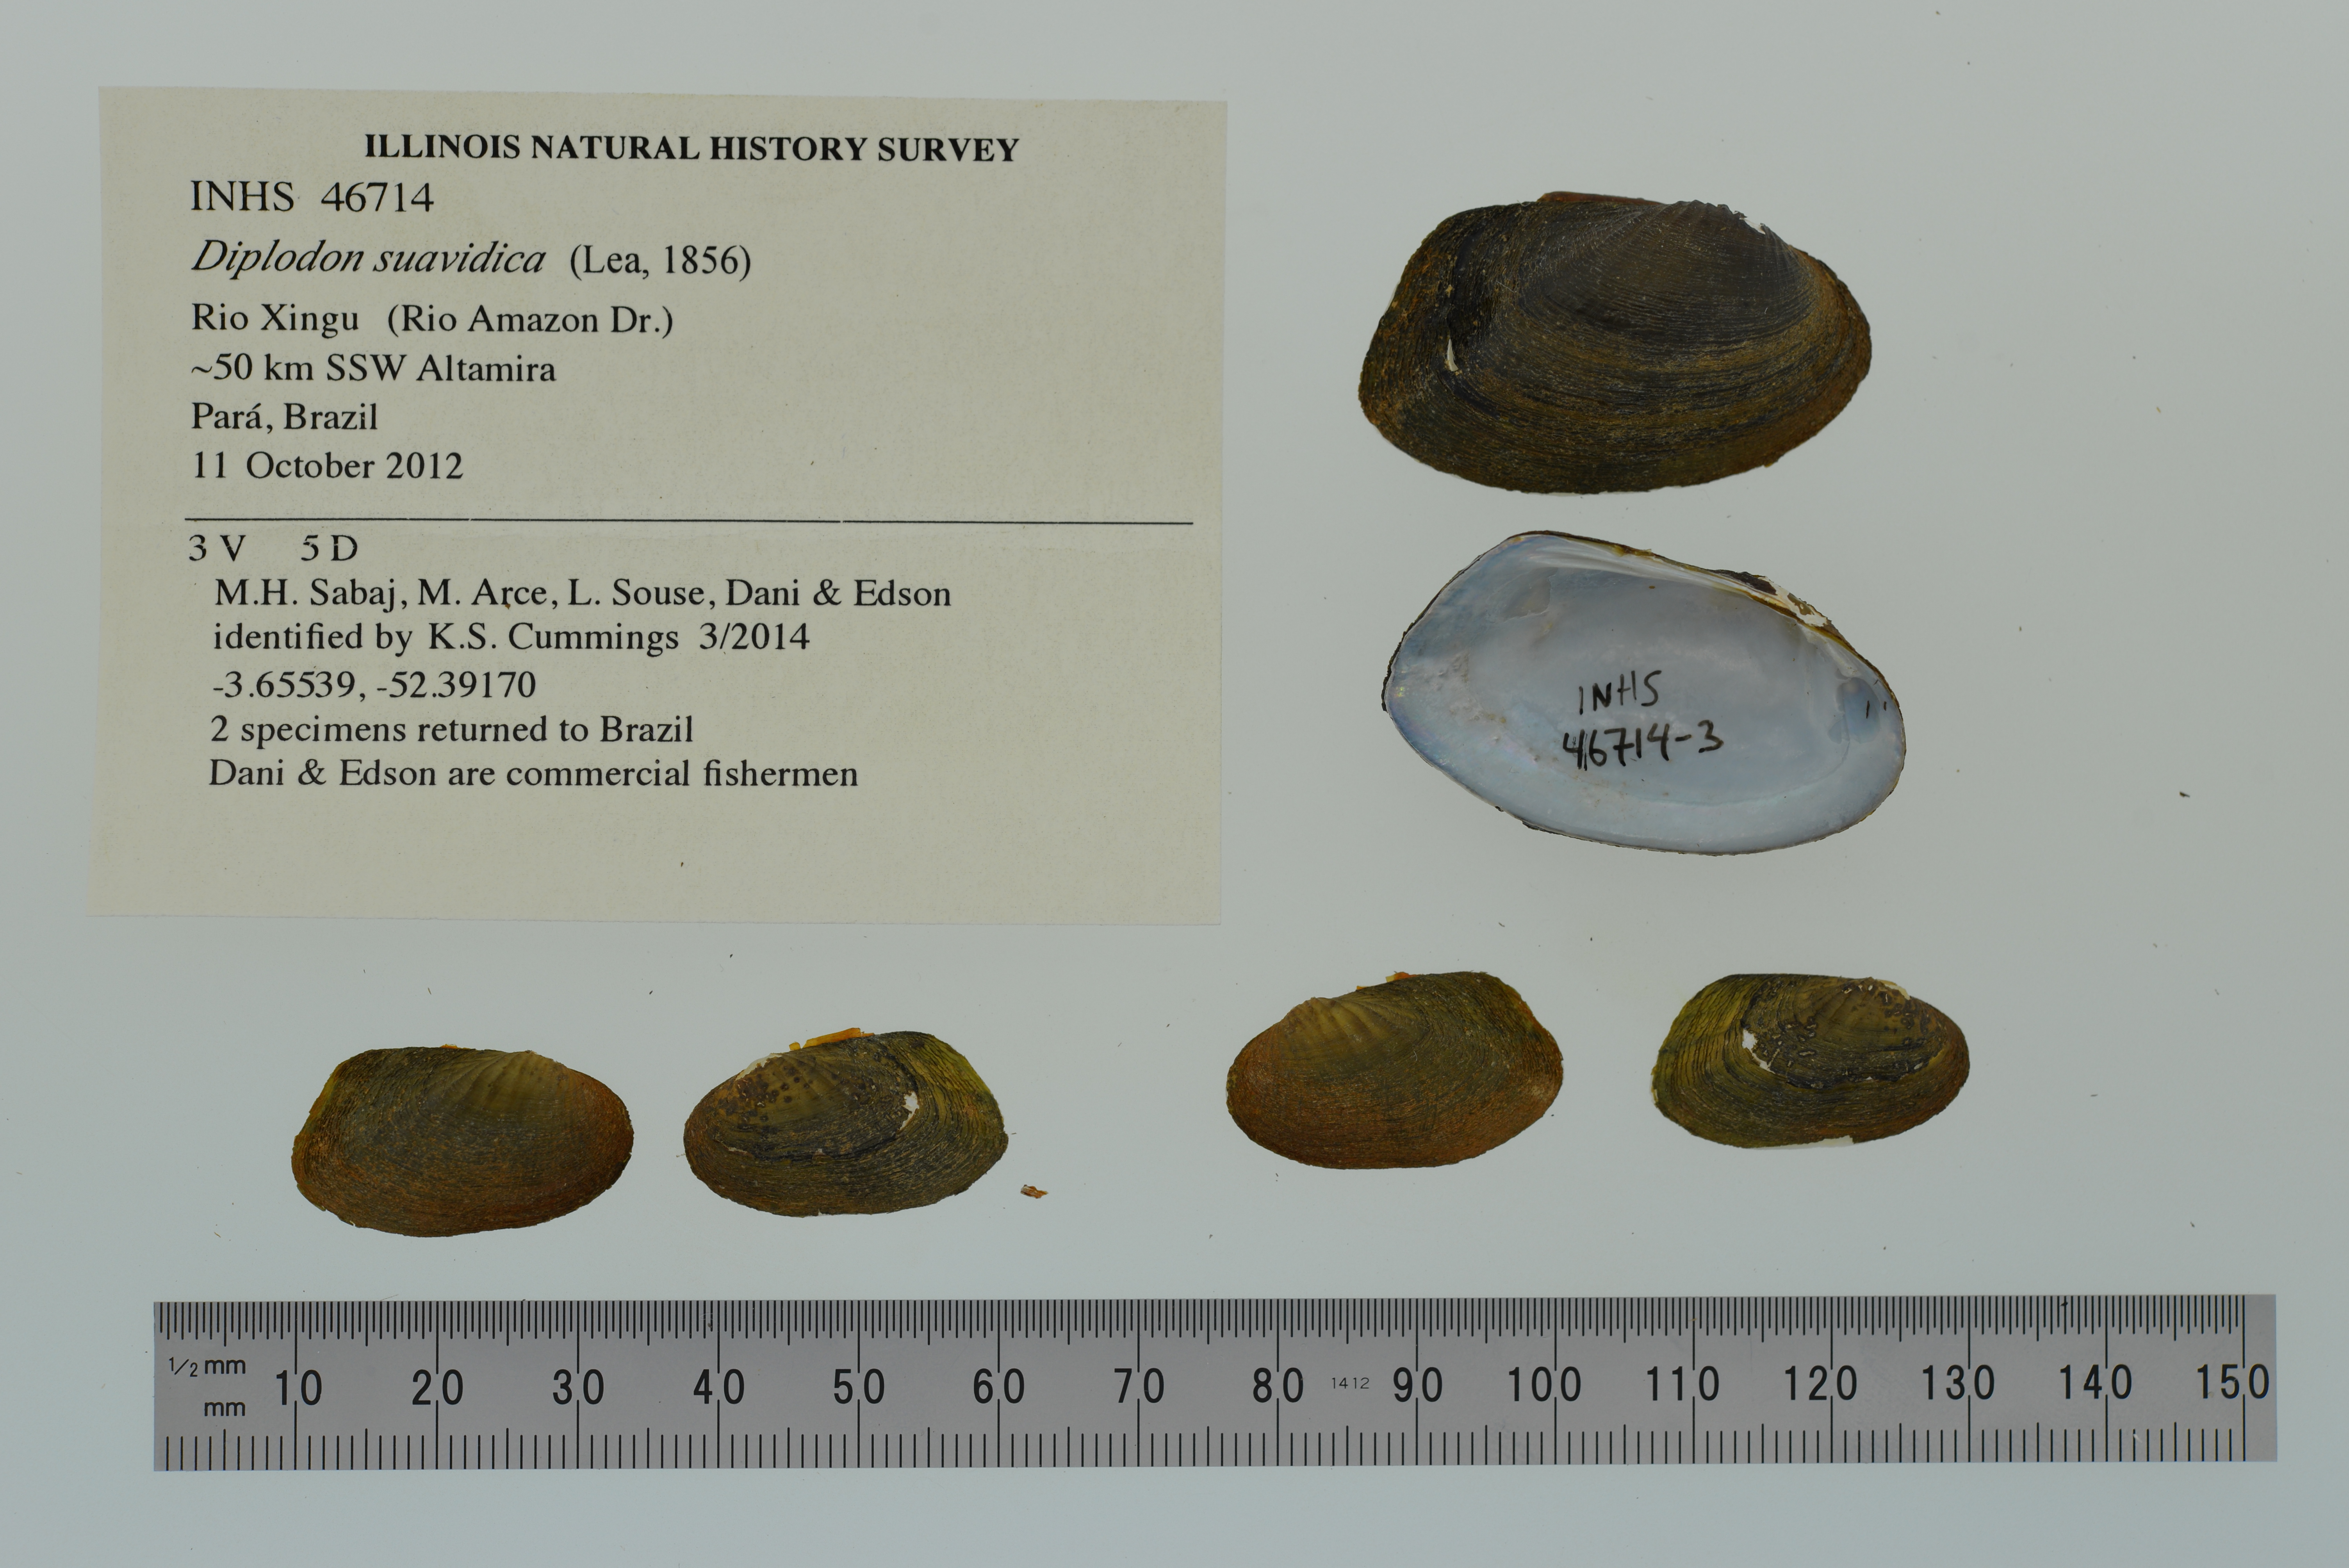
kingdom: Animalia
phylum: Mollusca
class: Bivalvia
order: Unionida
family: Hyriidae
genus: Diplodon
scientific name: Diplodon suavidicus
